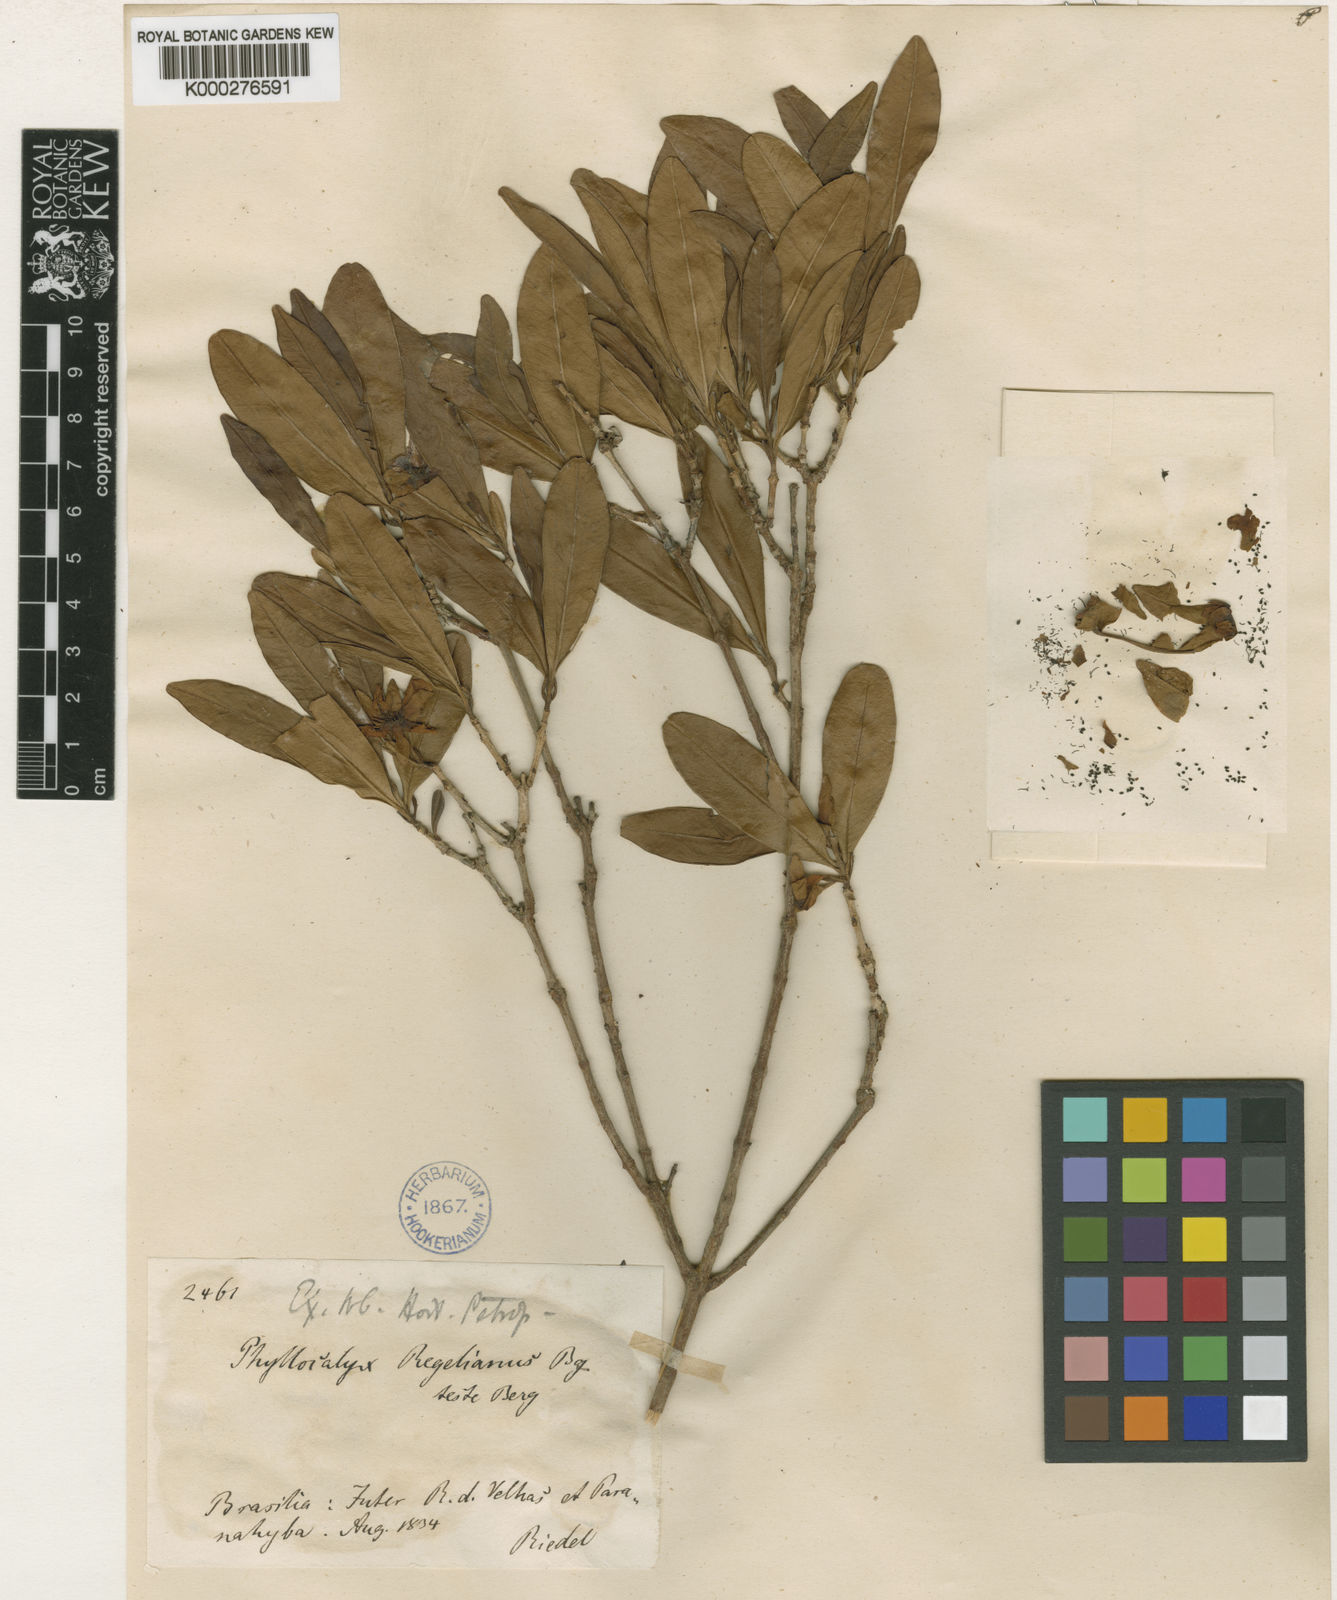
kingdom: Plantae
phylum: Tracheophyta
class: Magnoliopsida
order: Myrtales
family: Myrtaceae
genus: Eugenia
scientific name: Eugenia calycina
